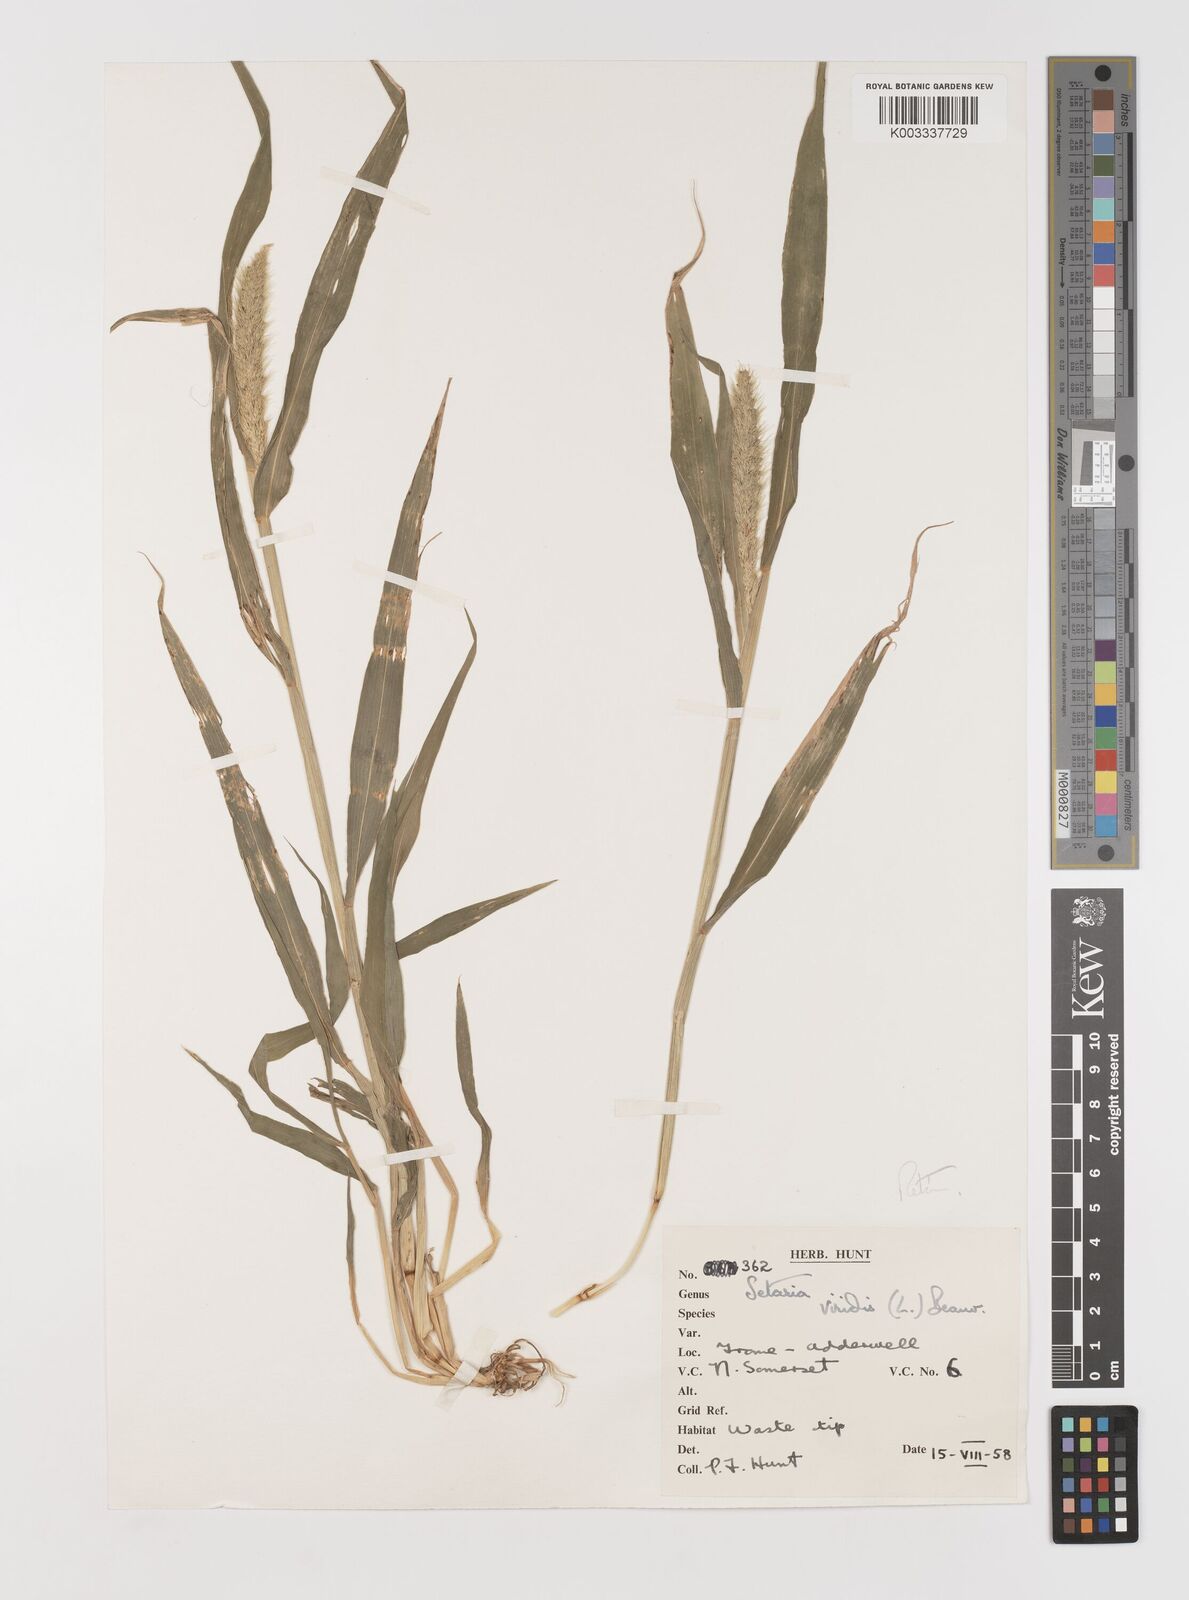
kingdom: Plantae
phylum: Tracheophyta
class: Liliopsida
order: Poales
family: Poaceae
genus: Setaria
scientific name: Setaria viridis
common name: Green bristlegrass
